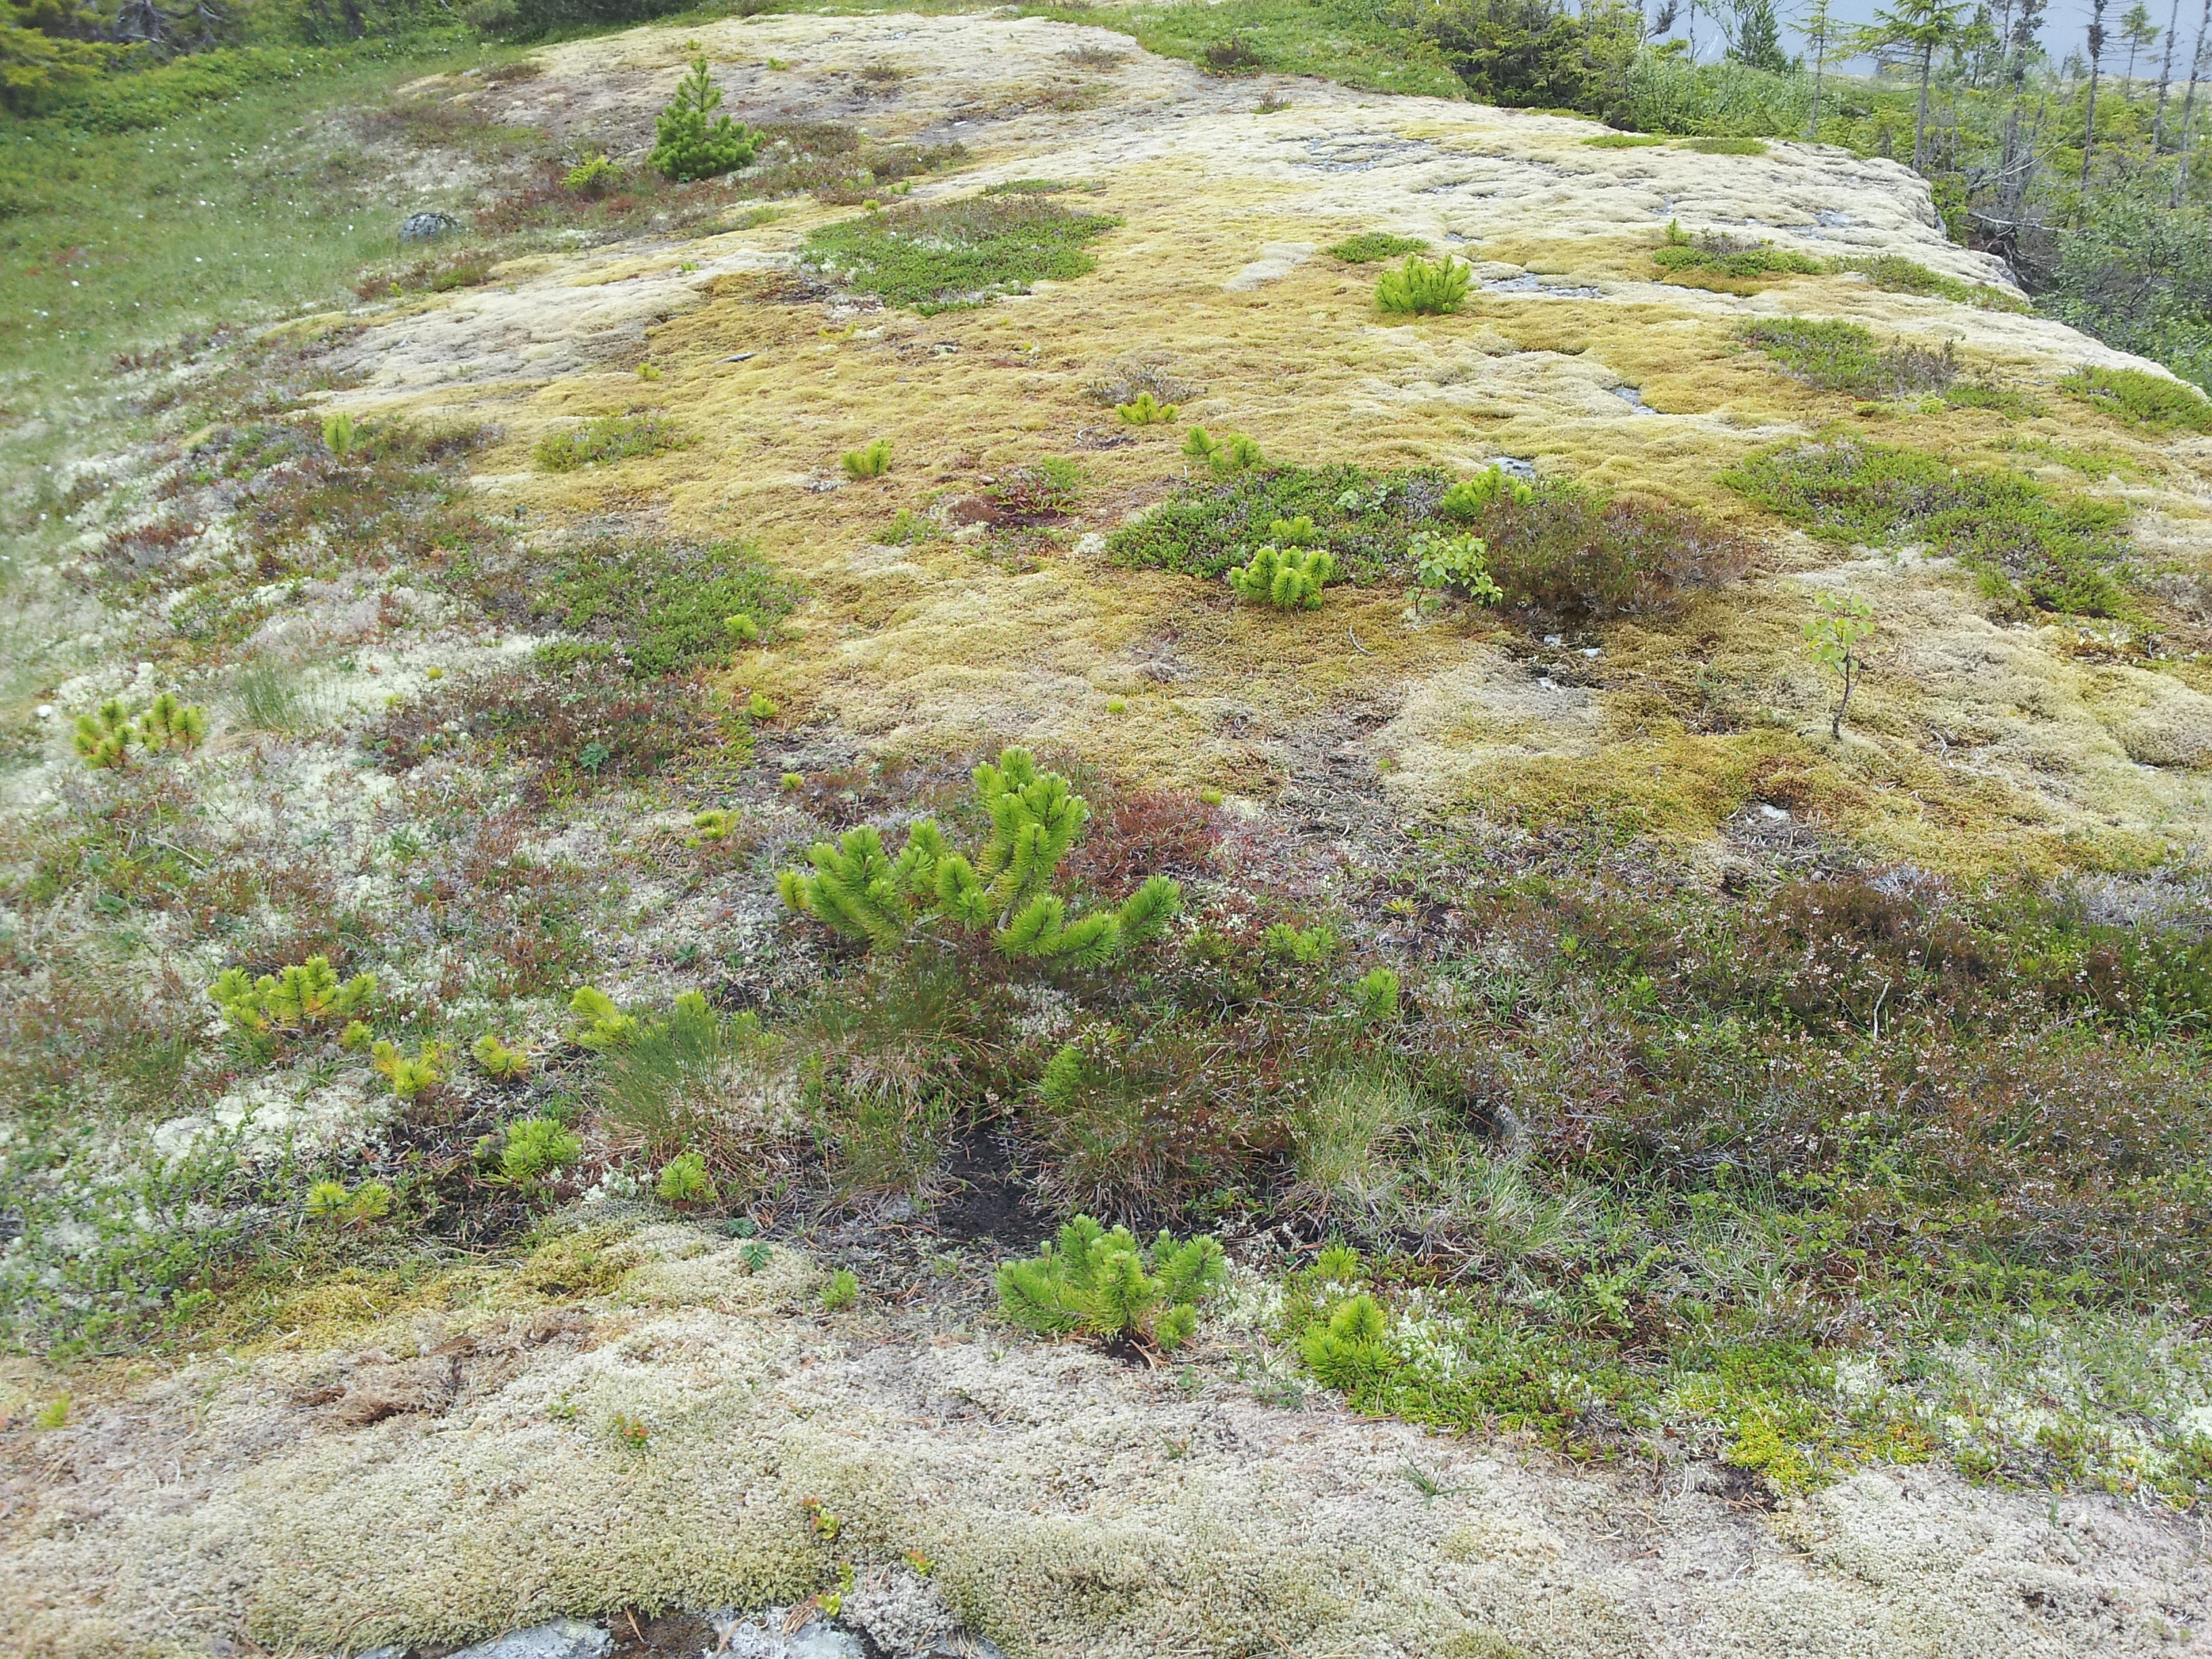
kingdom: Plantae
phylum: Tracheophyta
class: Pinopsida
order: Pinales
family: Pinaceae
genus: Pinus
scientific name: Pinus mugo
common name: Mugo pine
